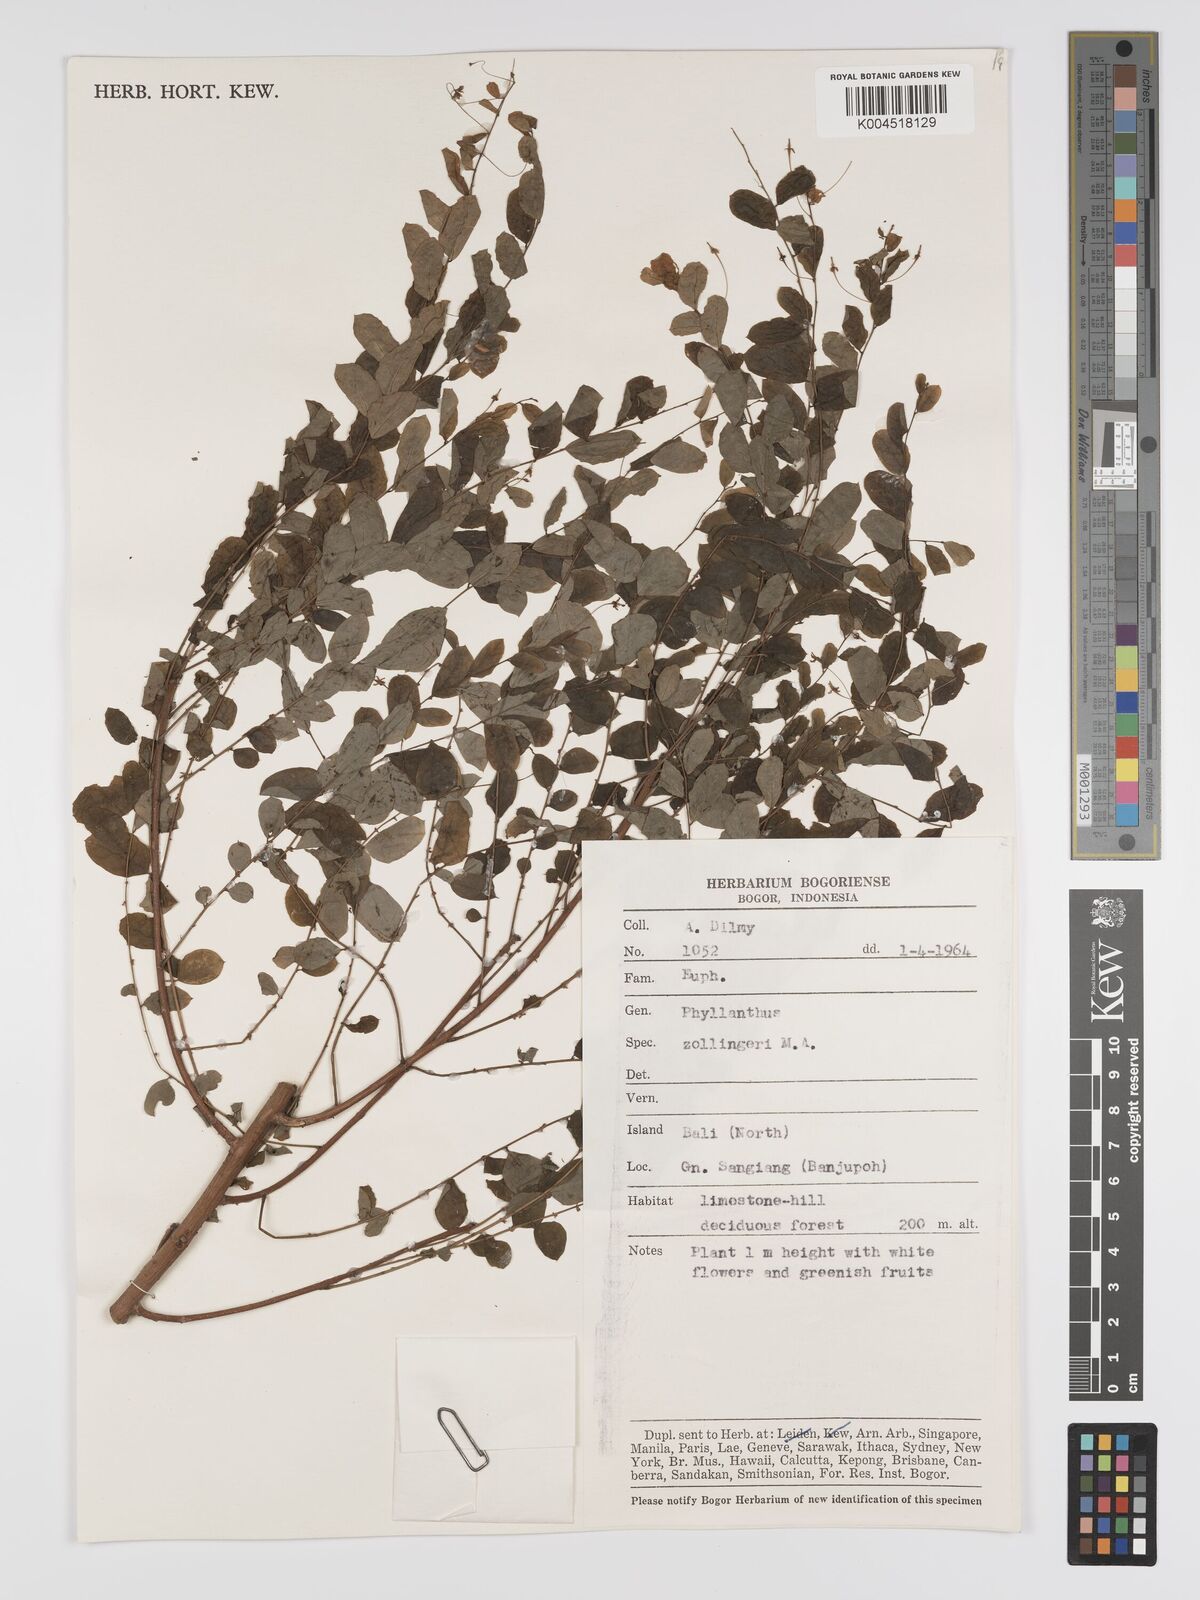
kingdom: Plantae
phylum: Tracheophyta
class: Magnoliopsida
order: Malpighiales
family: Phyllanthaceae
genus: Phyllanthus
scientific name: Phyllanthus
